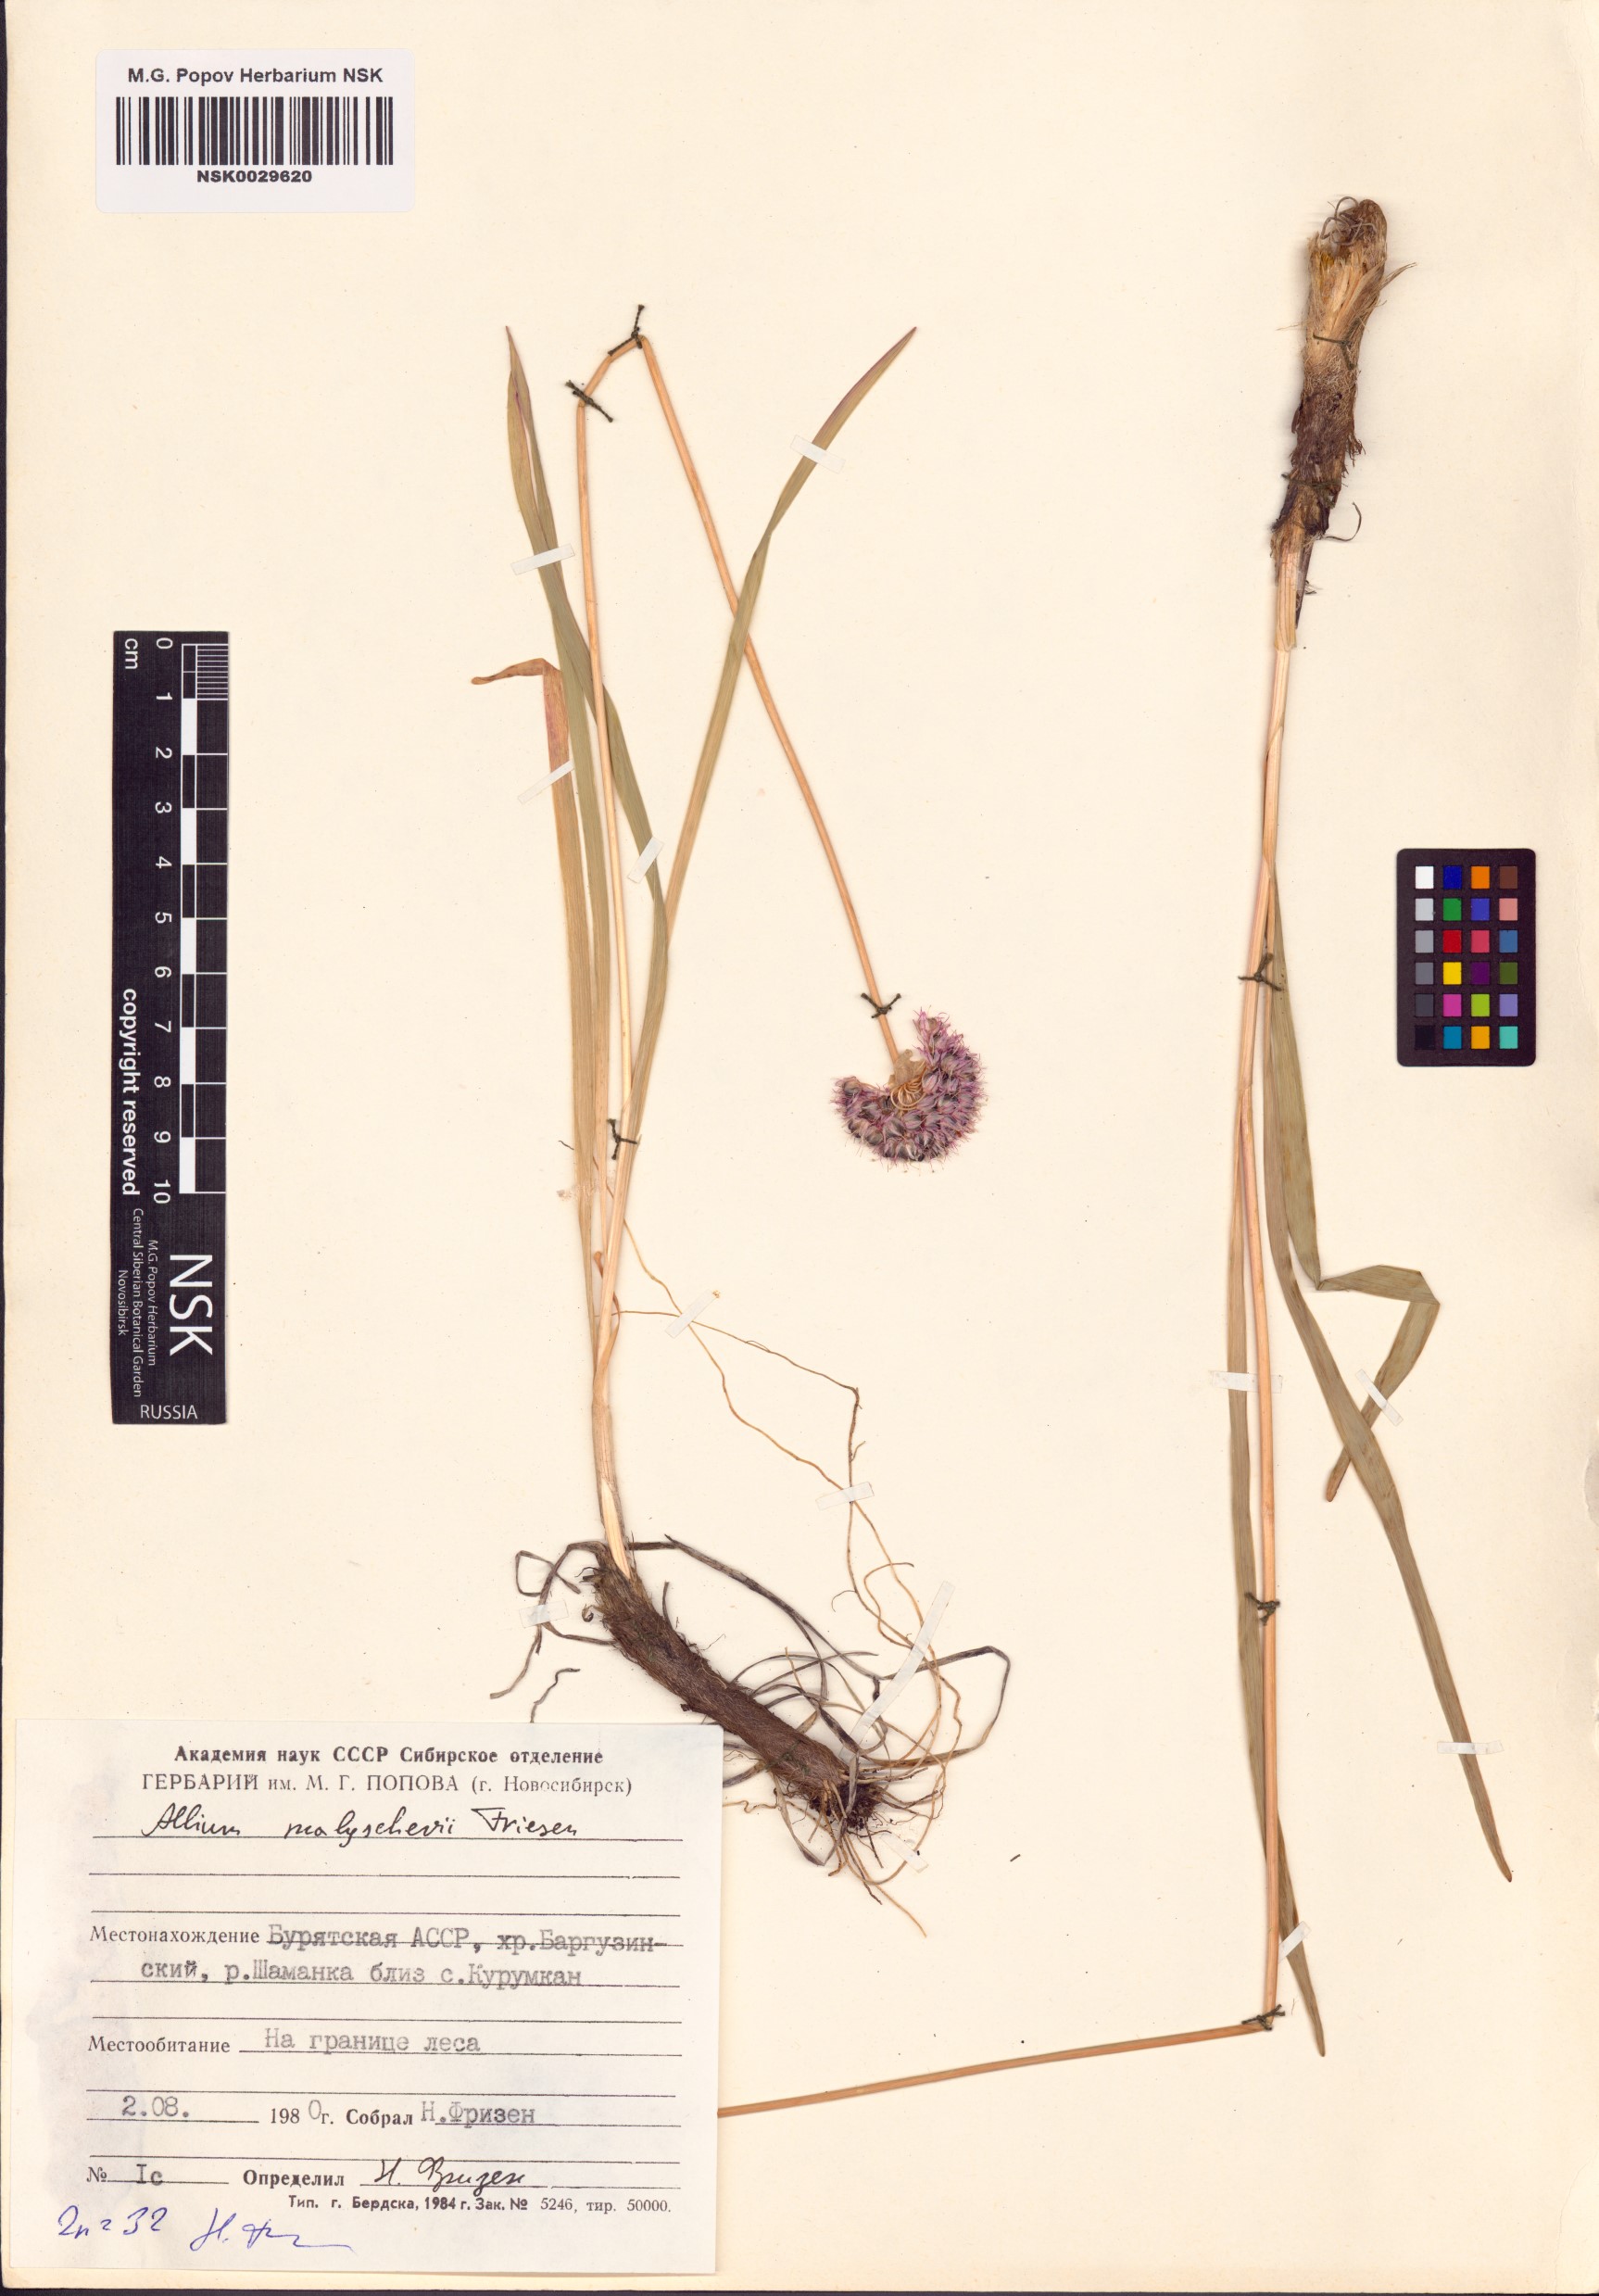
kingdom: Plantae
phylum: Tracheophyta
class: Liliopsida
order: Asparagales
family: Amaryllidaceae
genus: Allium
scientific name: Allium malyschevii
